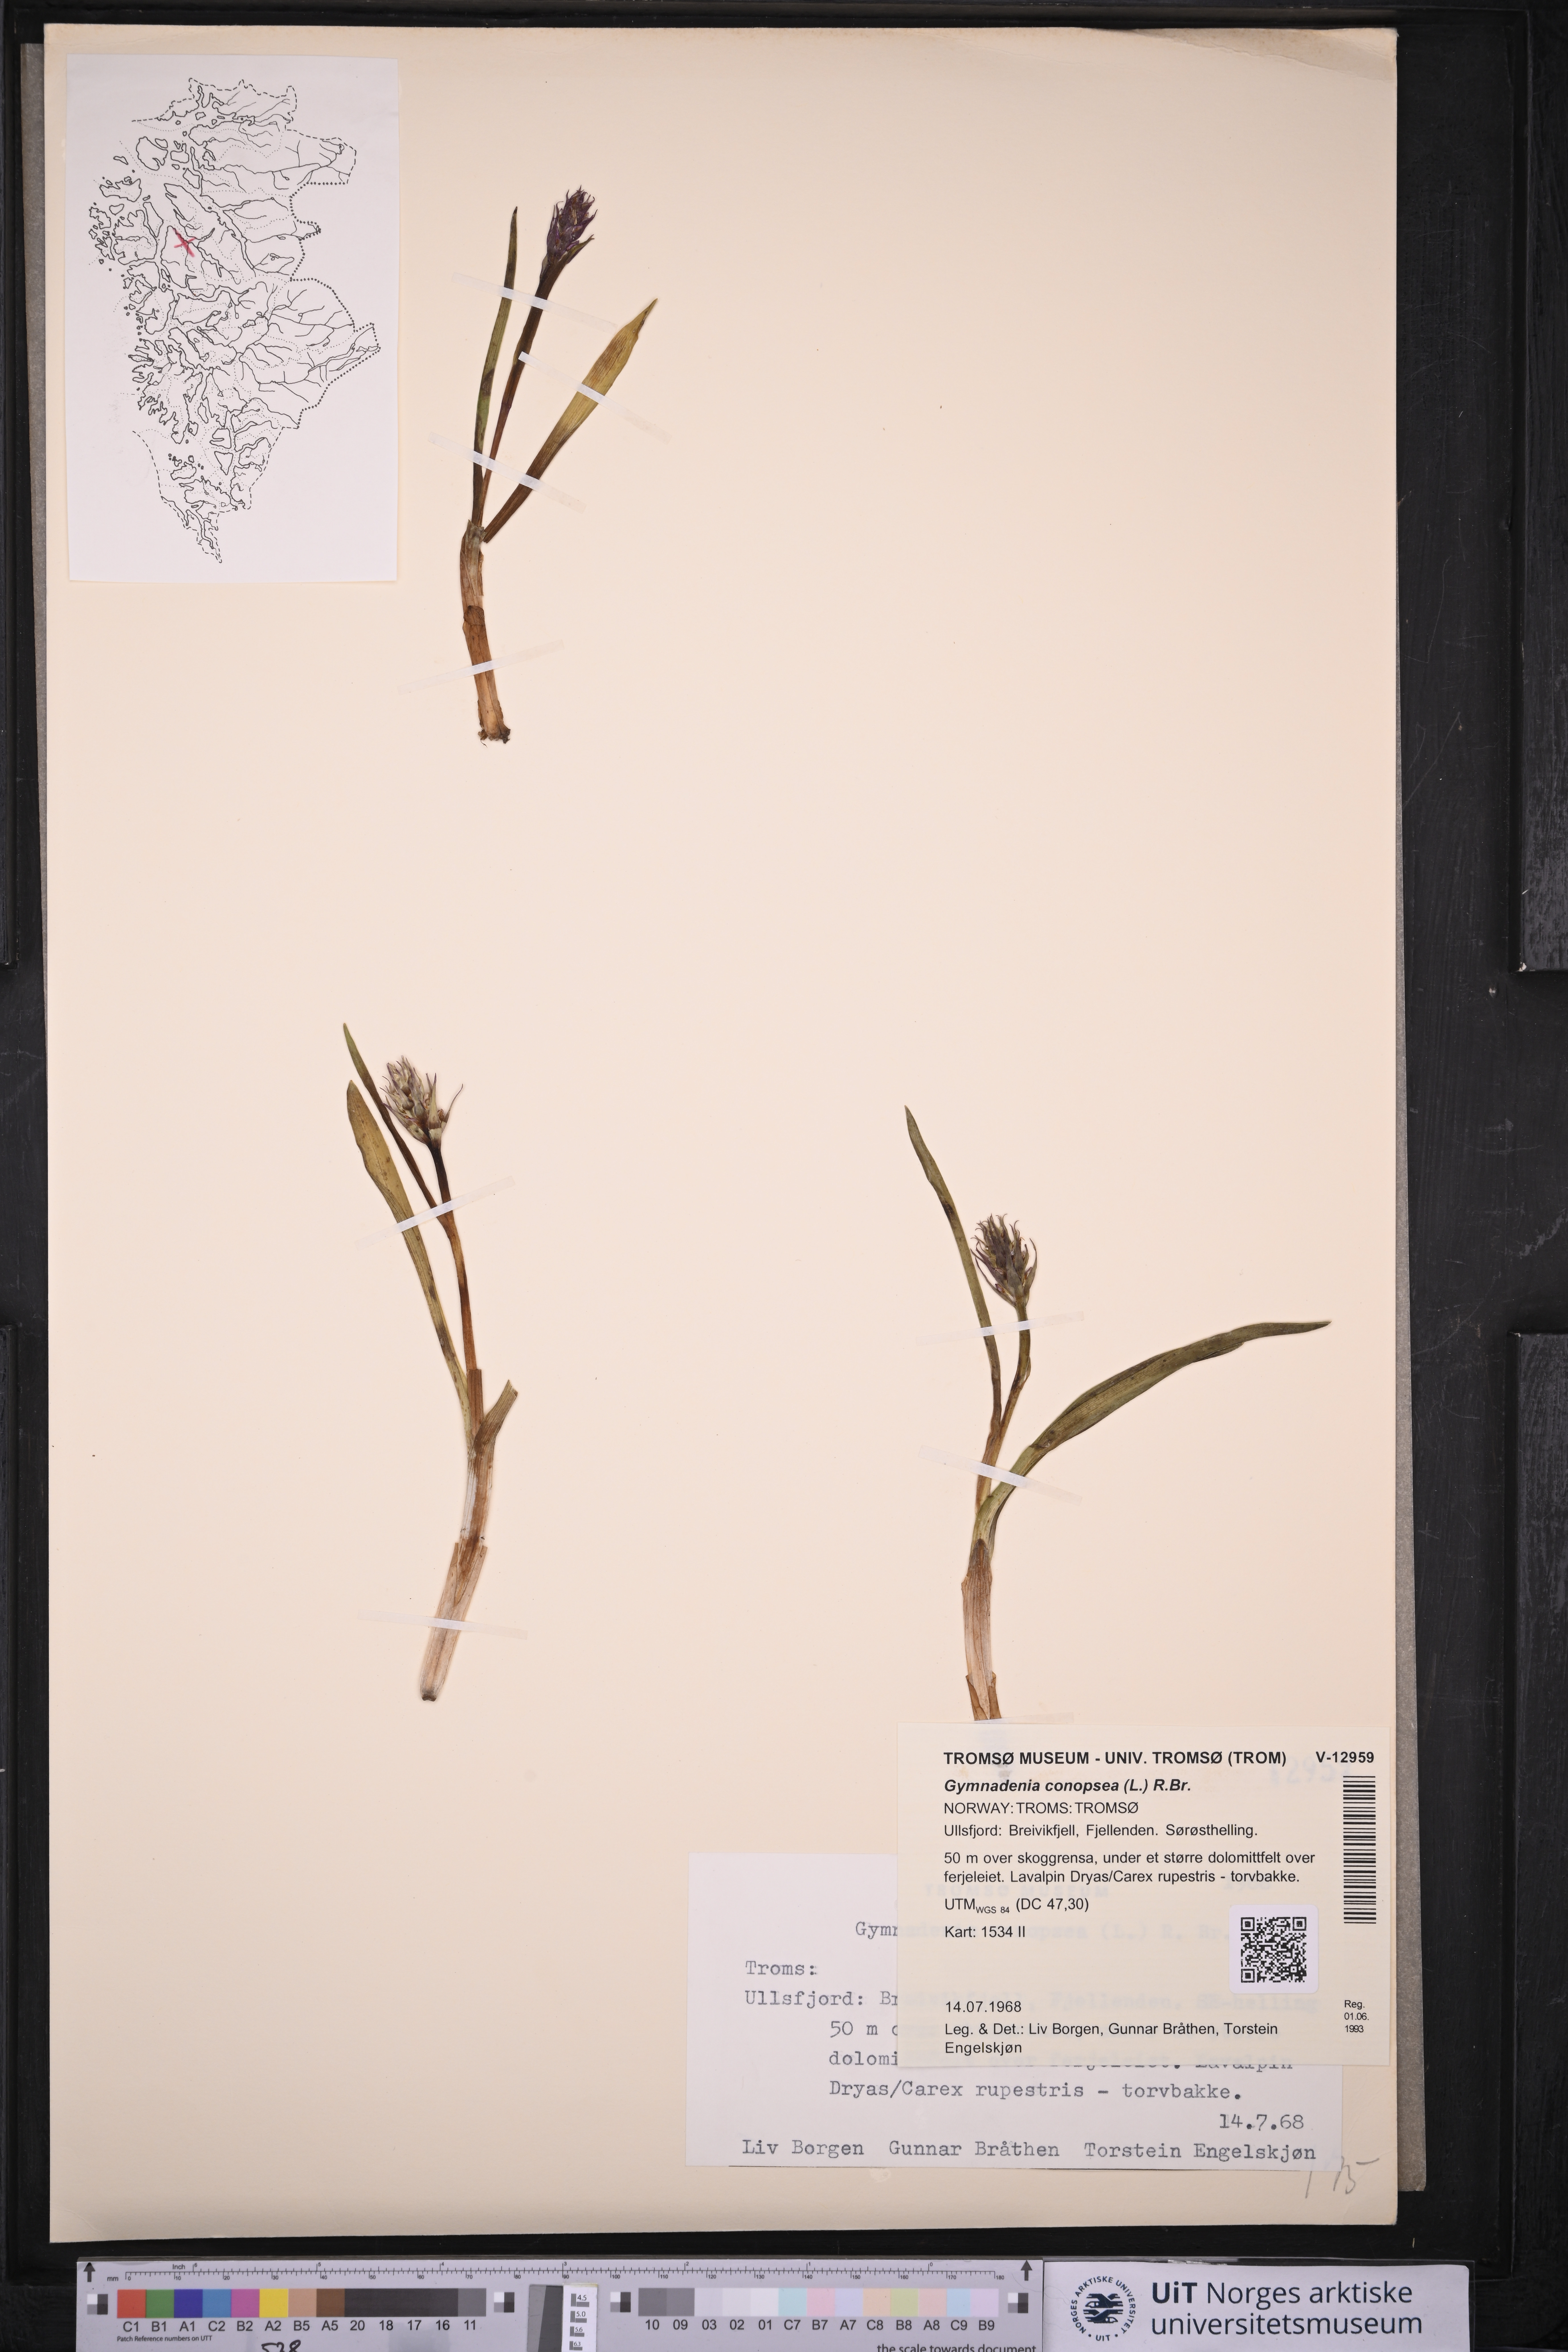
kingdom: Plantae
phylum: Tracheophyta
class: Liliopsida
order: Asparagales
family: Orchidaceae
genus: Gymnadenia
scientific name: Gymnadenia conopsea
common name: Fragrant orchid
